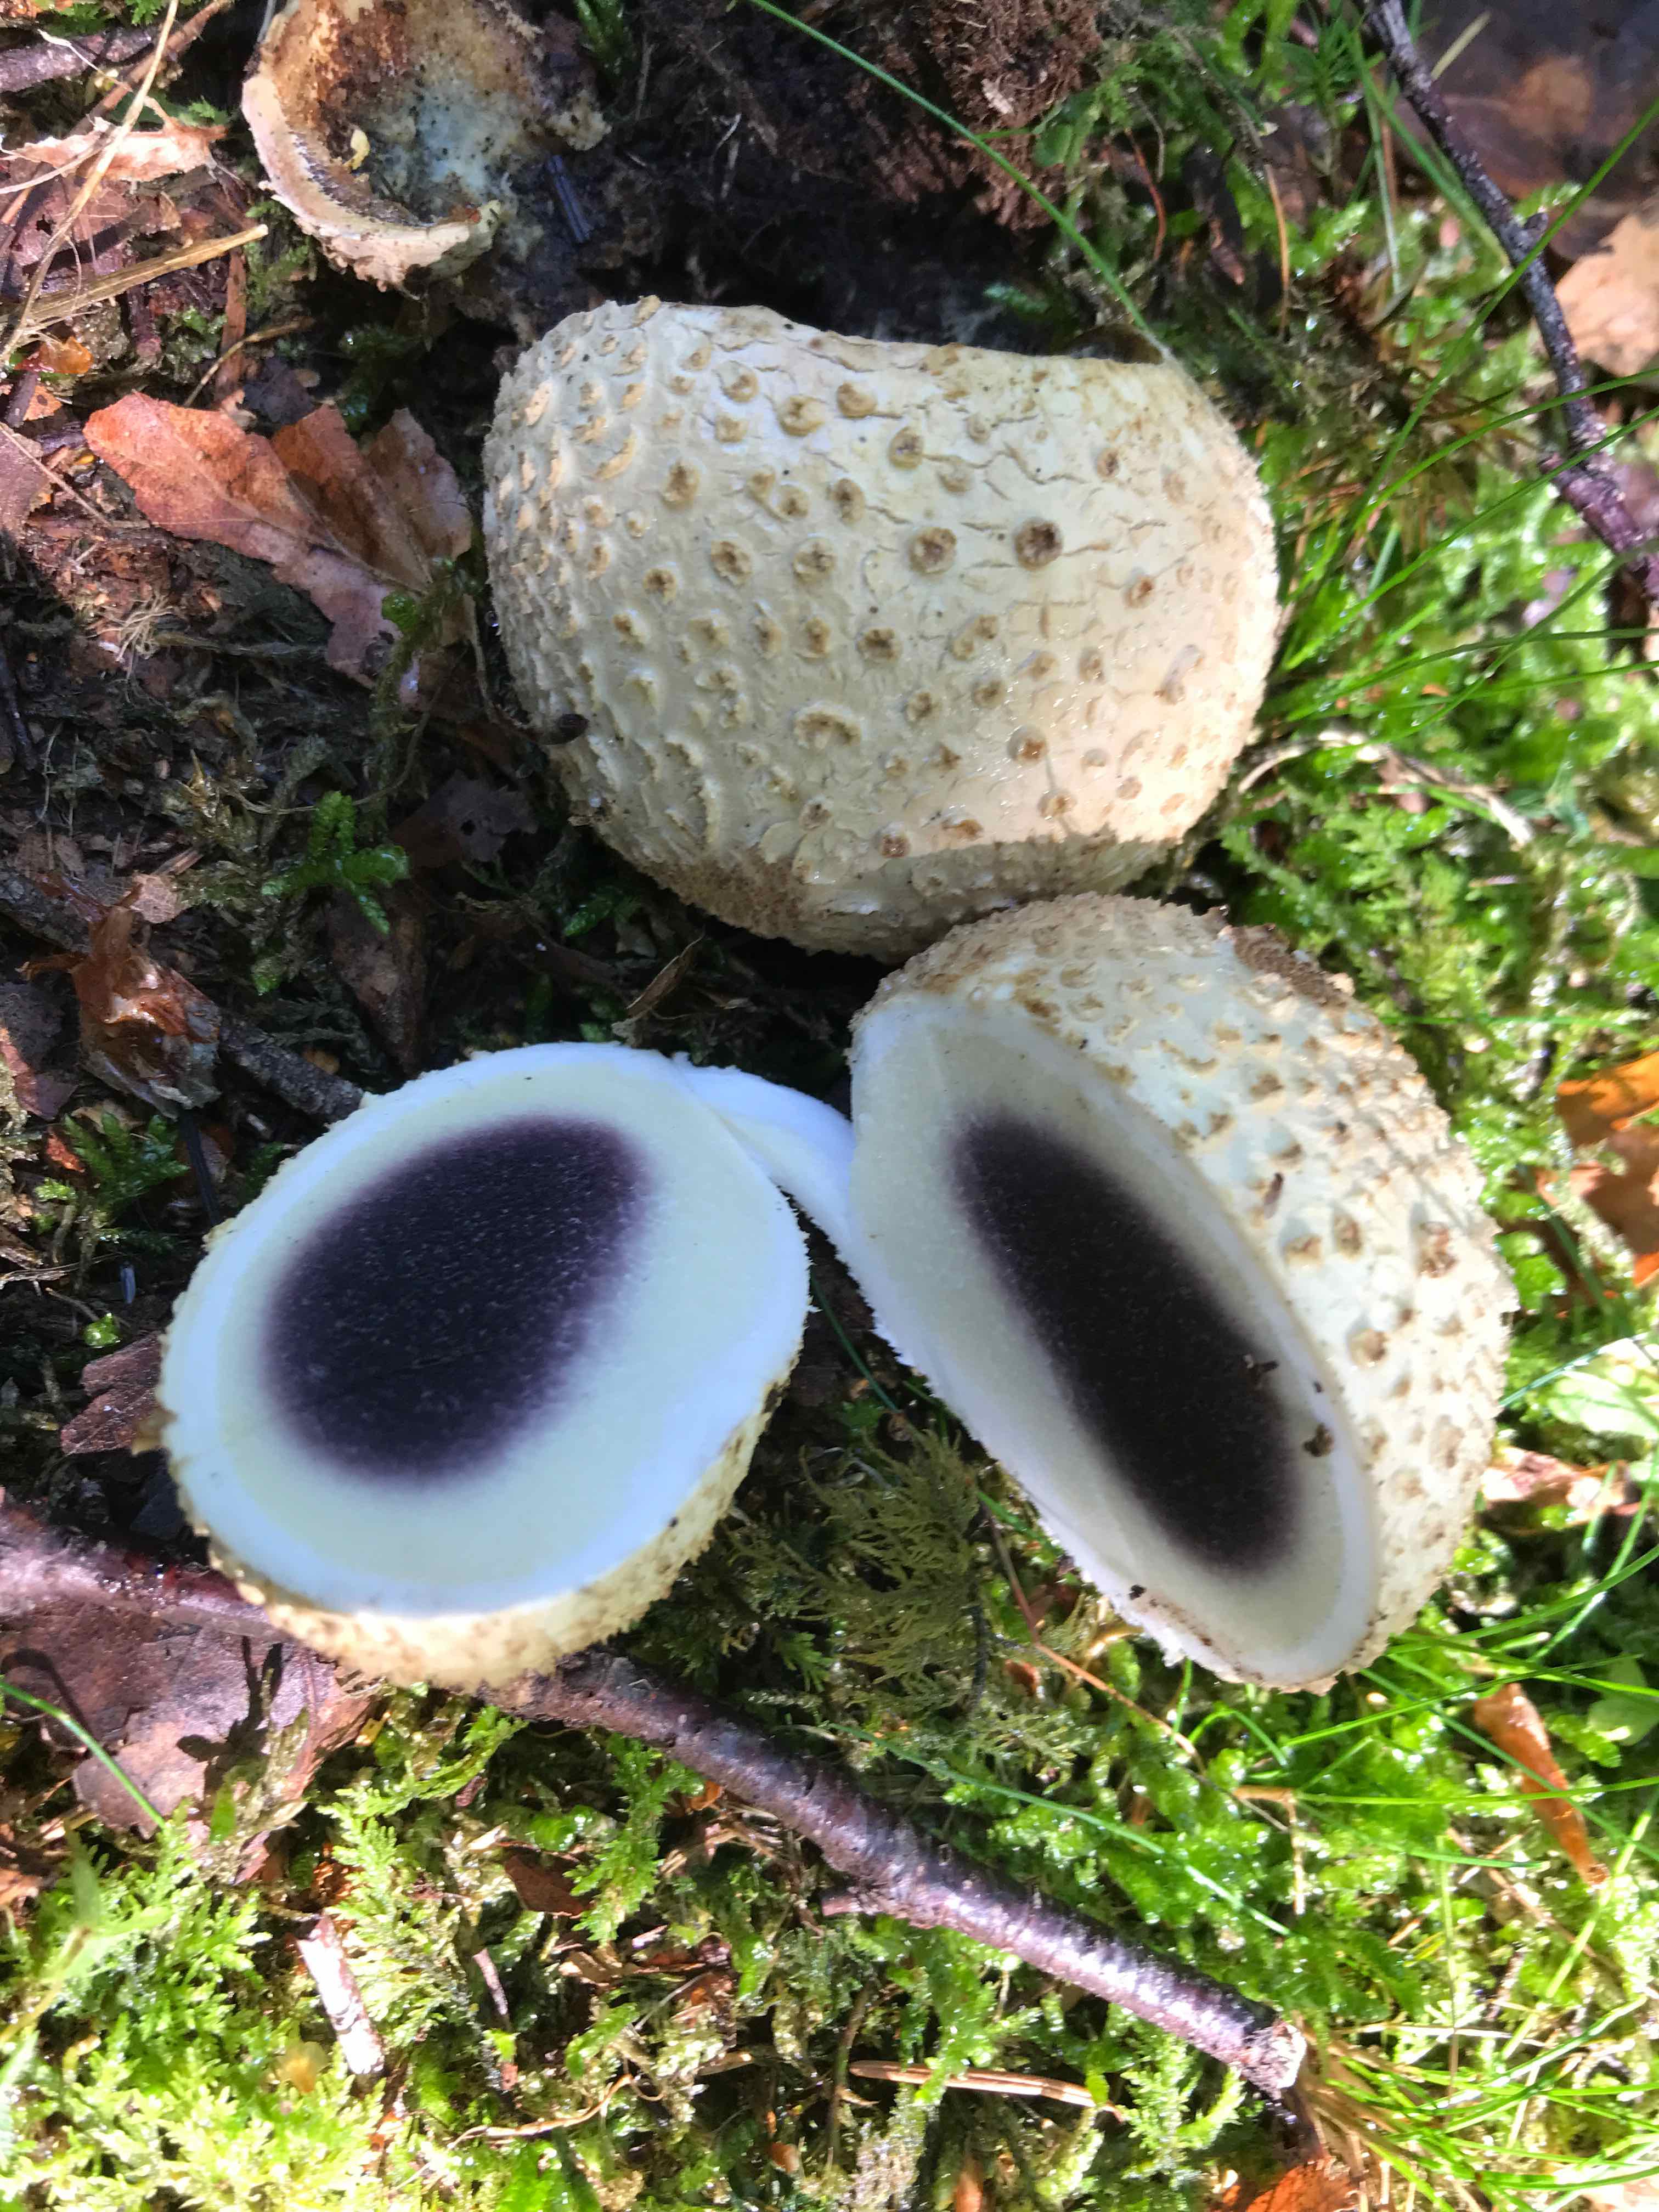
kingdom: Fungi
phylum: Basidiomycota
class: Agaricomycetes
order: Boletales
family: Sclerodermataceae
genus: Scleroderma
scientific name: Scleroderma citrinum
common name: almindelig bruskbold
